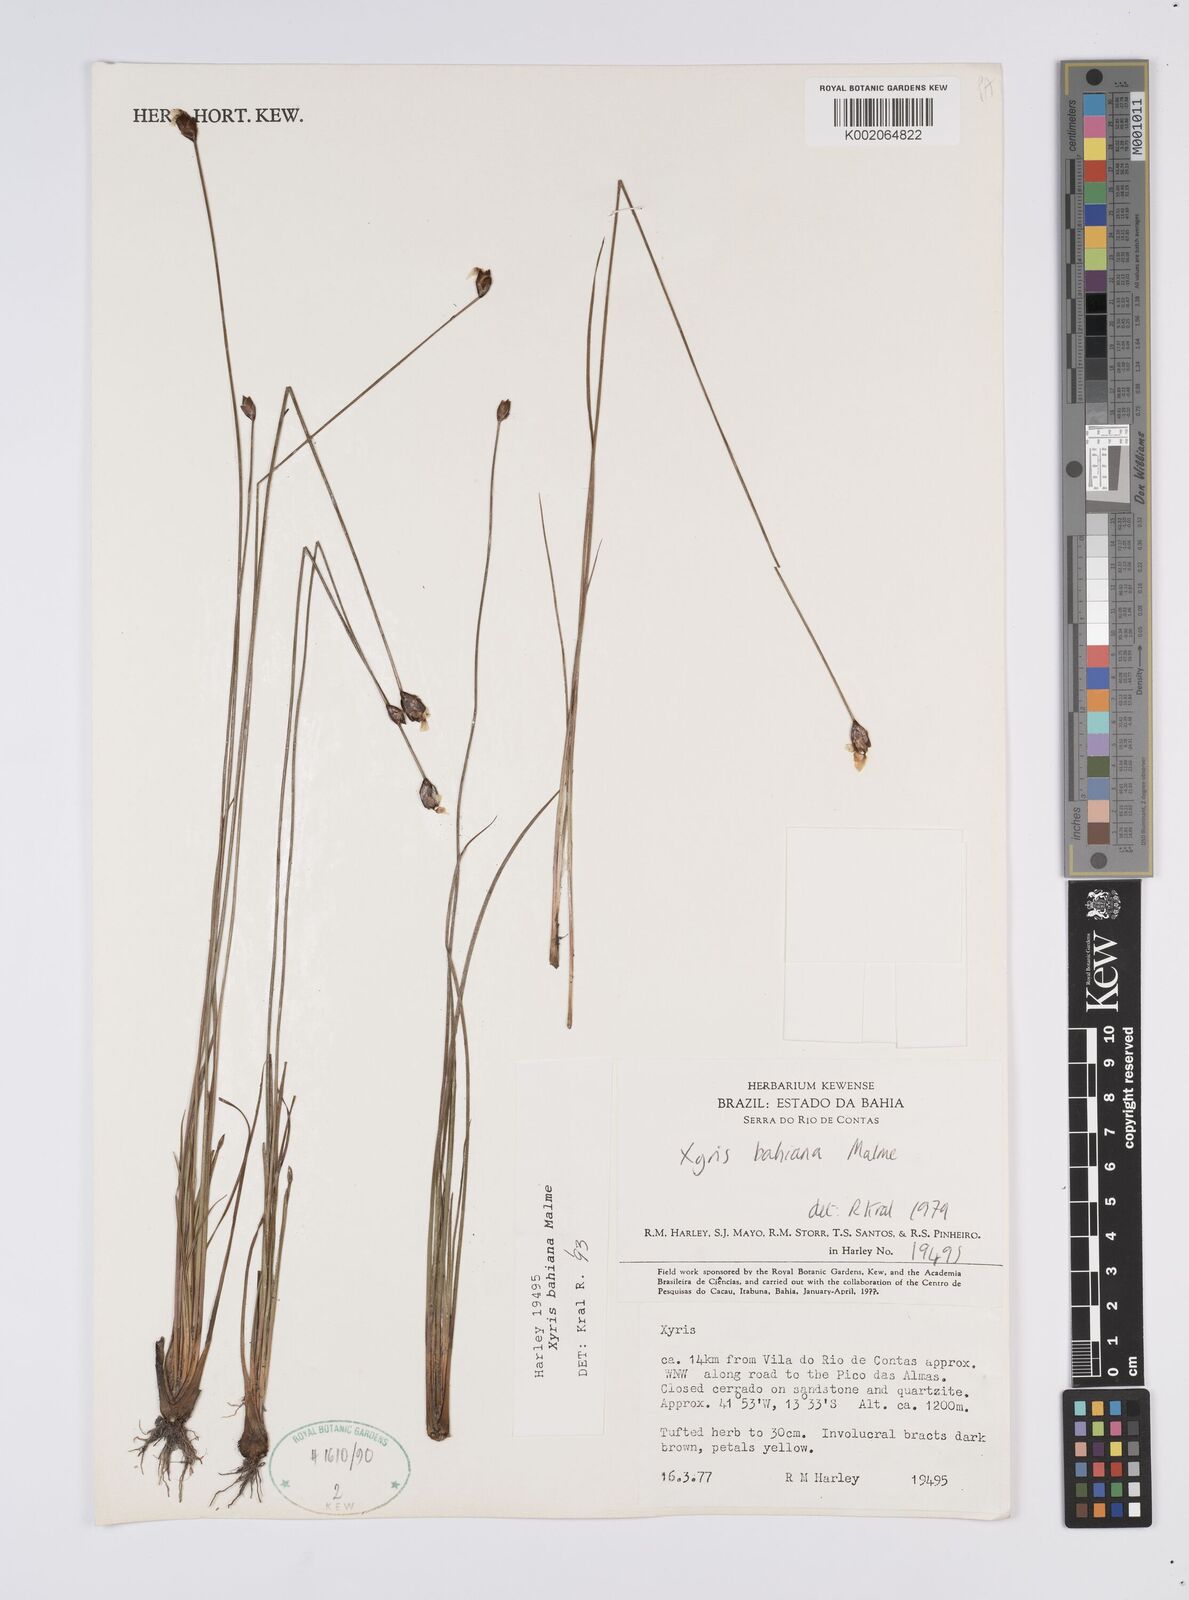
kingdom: Plantae
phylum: Tracheophyta
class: Liliopsida
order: Poales
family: Xyridaceae
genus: Xyris
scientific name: Xyris bahiana
